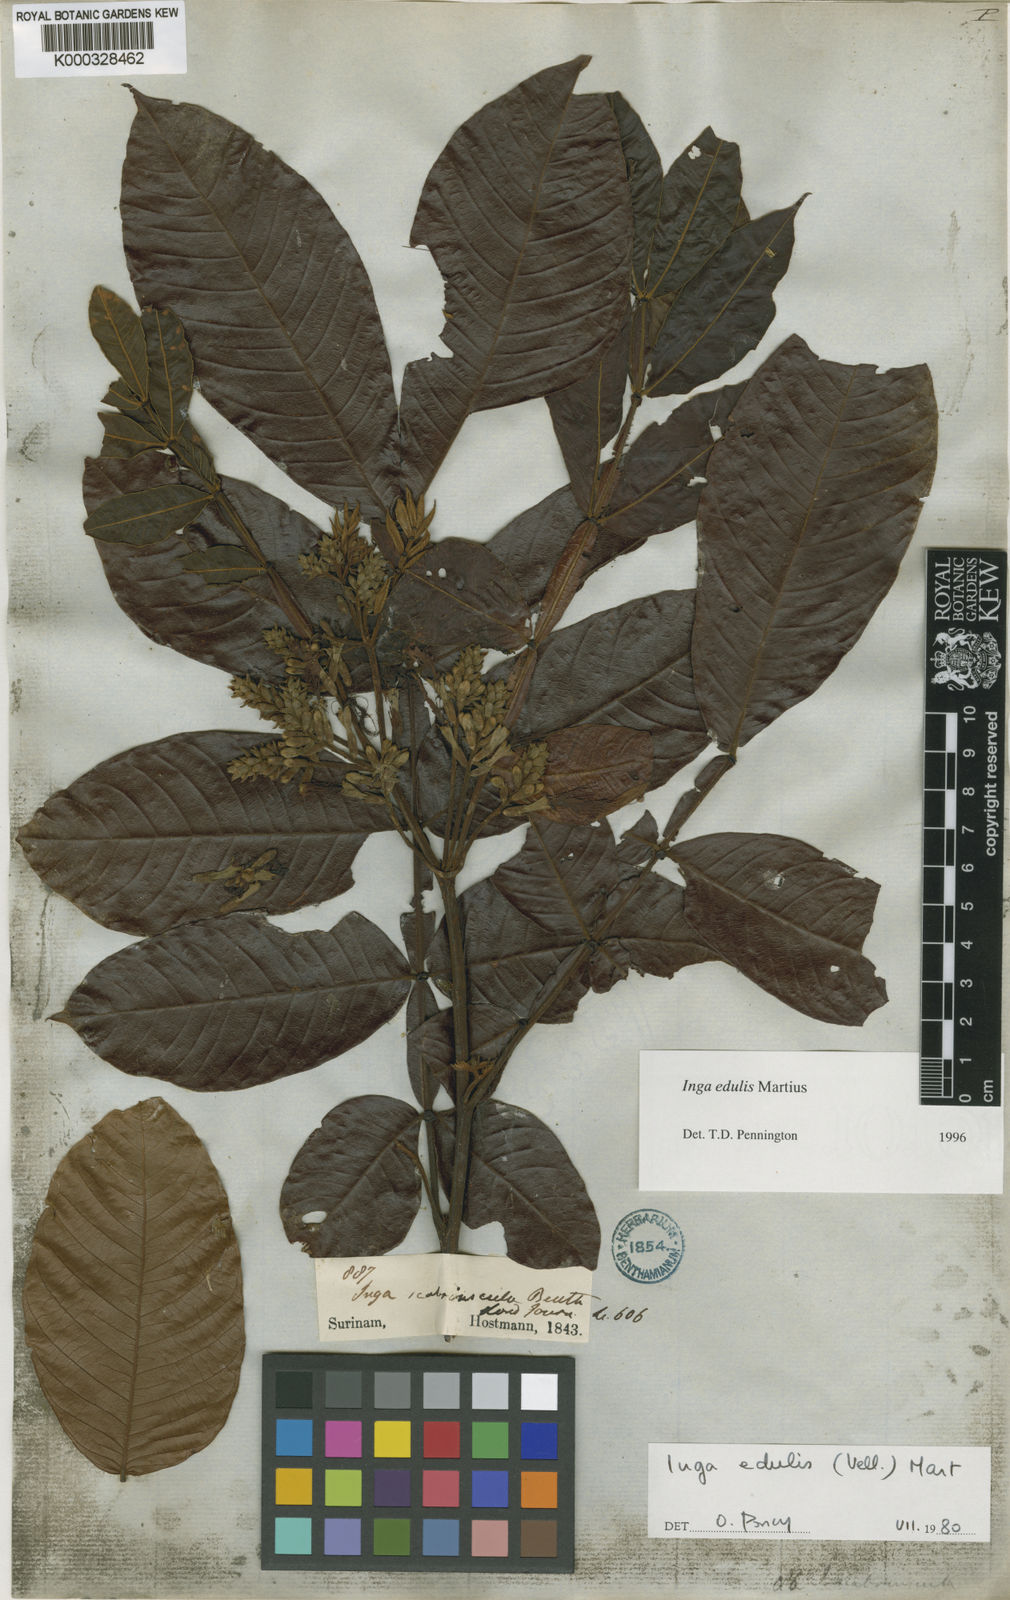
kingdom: Plantae
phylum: Tracheophyta
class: Magnoliopsida
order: Fabales
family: Fabaceae
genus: Inga
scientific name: Inga edulis
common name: Ice cream bean
